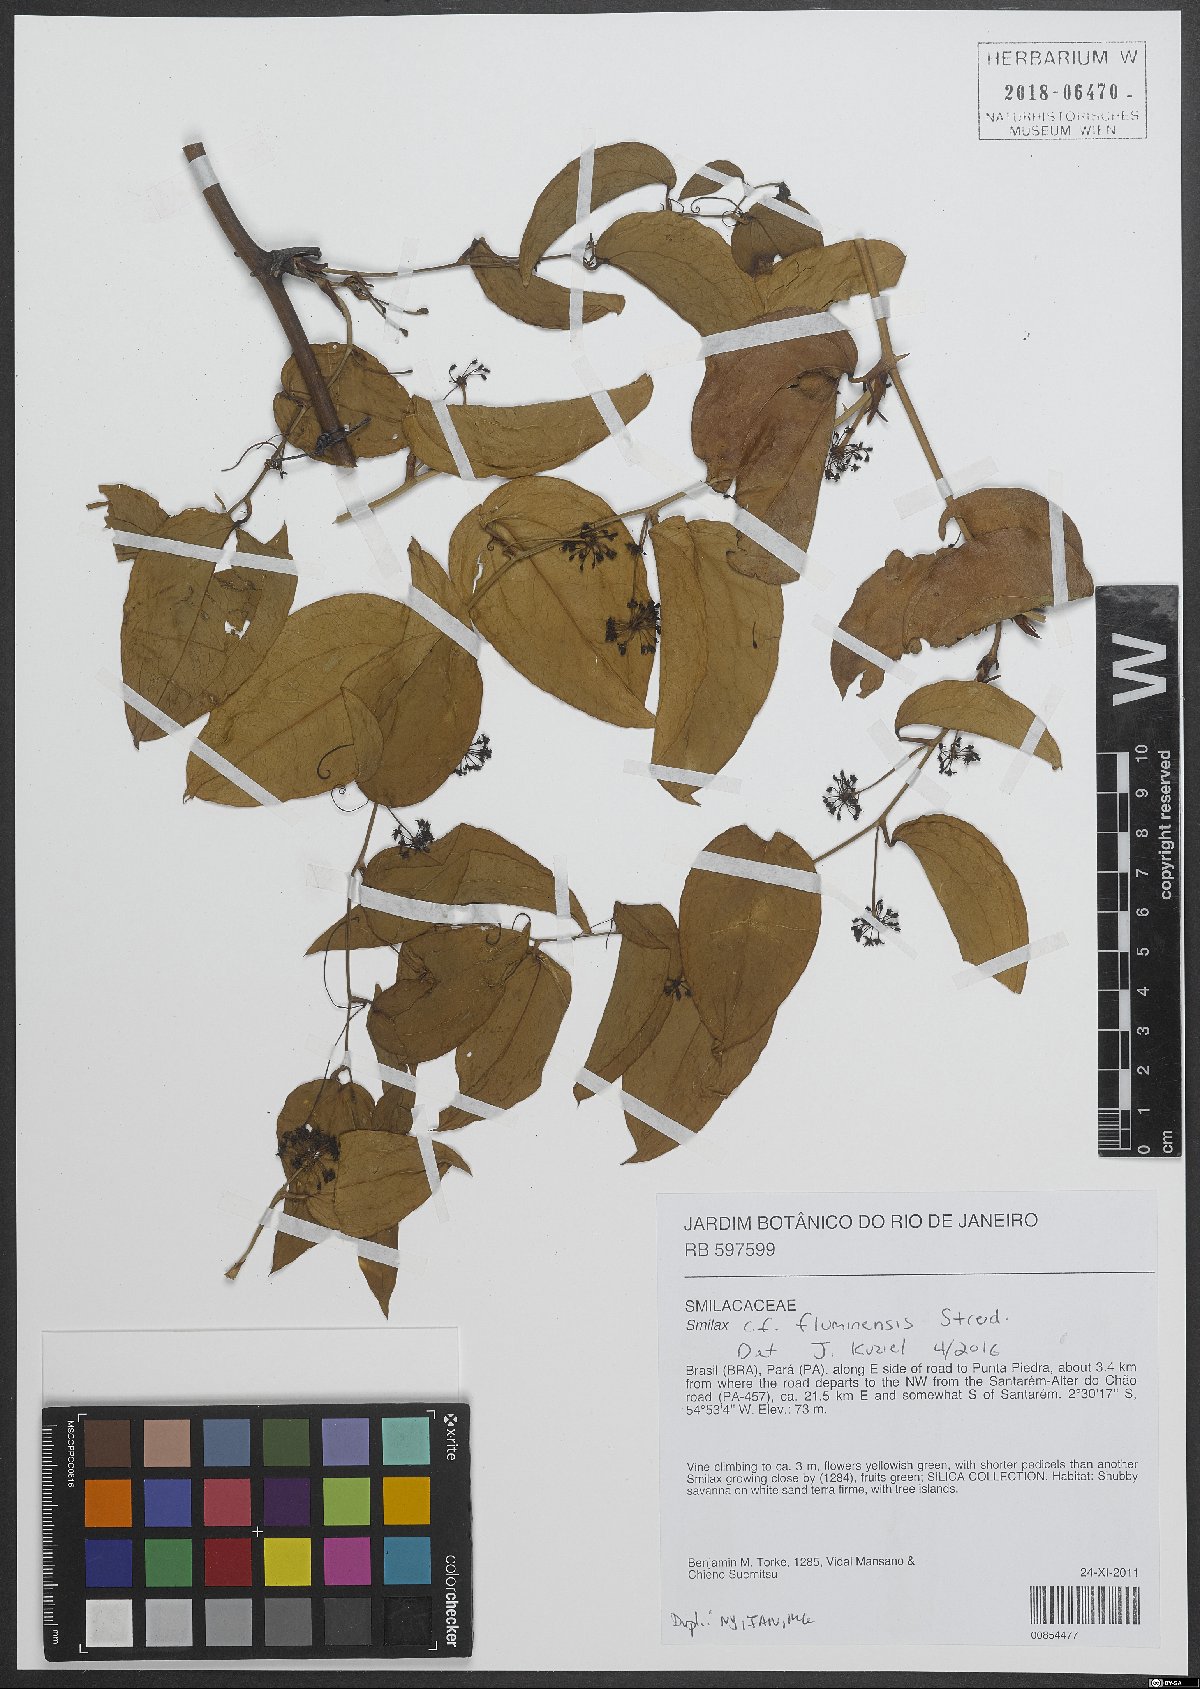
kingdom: Plantae
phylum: Tracheophyta
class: Liliopsida
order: Liliales
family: Smilacaceae
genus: Smilax
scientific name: Smilax fluminensis
